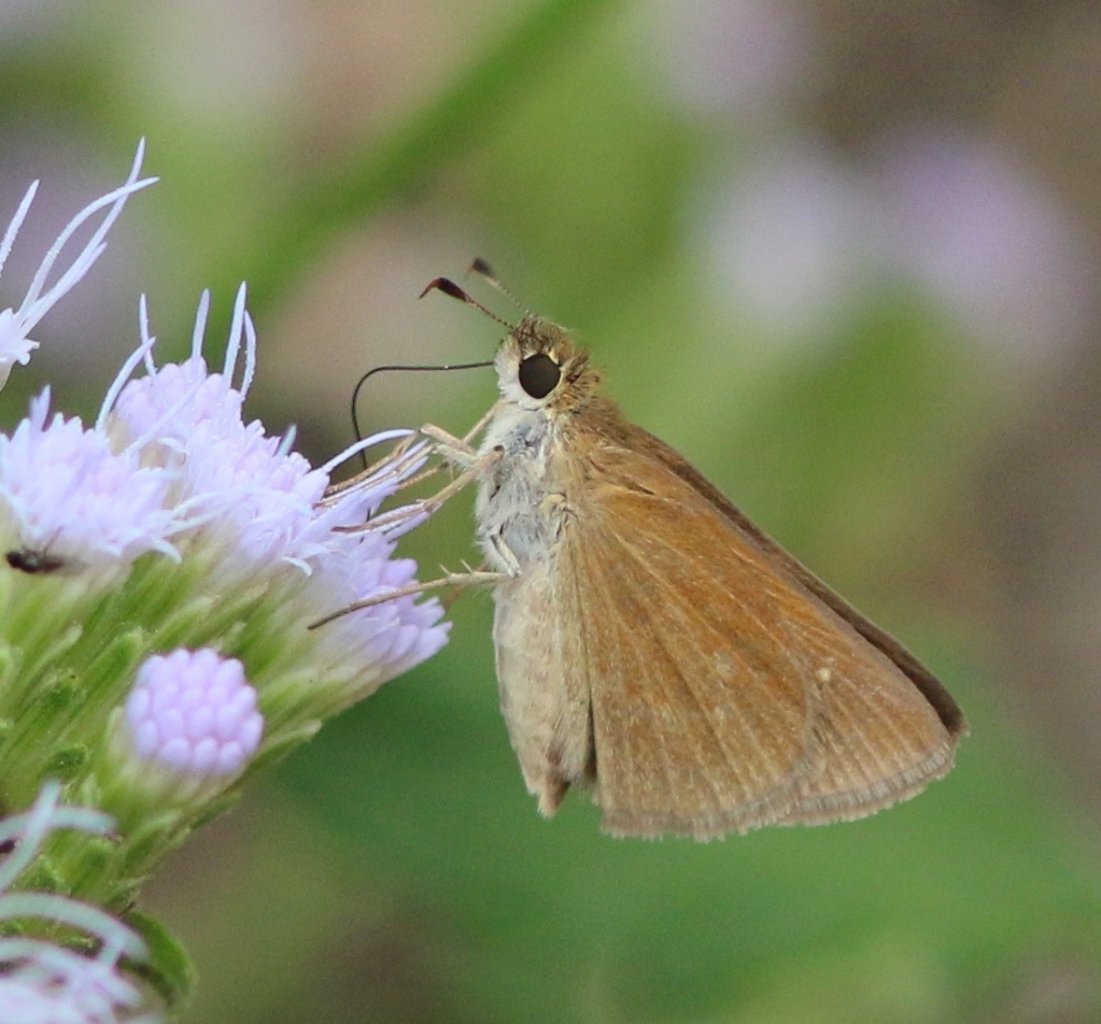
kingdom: Animalia
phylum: Arthropoda
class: Insecta
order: Lepidoptera
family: Hesperiidae
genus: Nastra
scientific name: Nastra julia
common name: Julia's Skipper
